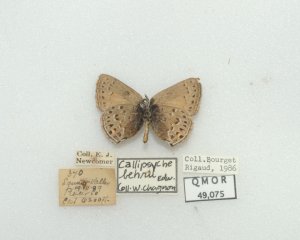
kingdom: Animalia
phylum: Arthropoda
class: Insecta
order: Lepidoptera
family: Lycaenidae
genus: Satyrium
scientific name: Satyrium behrii
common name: Behr's Hairstreak
